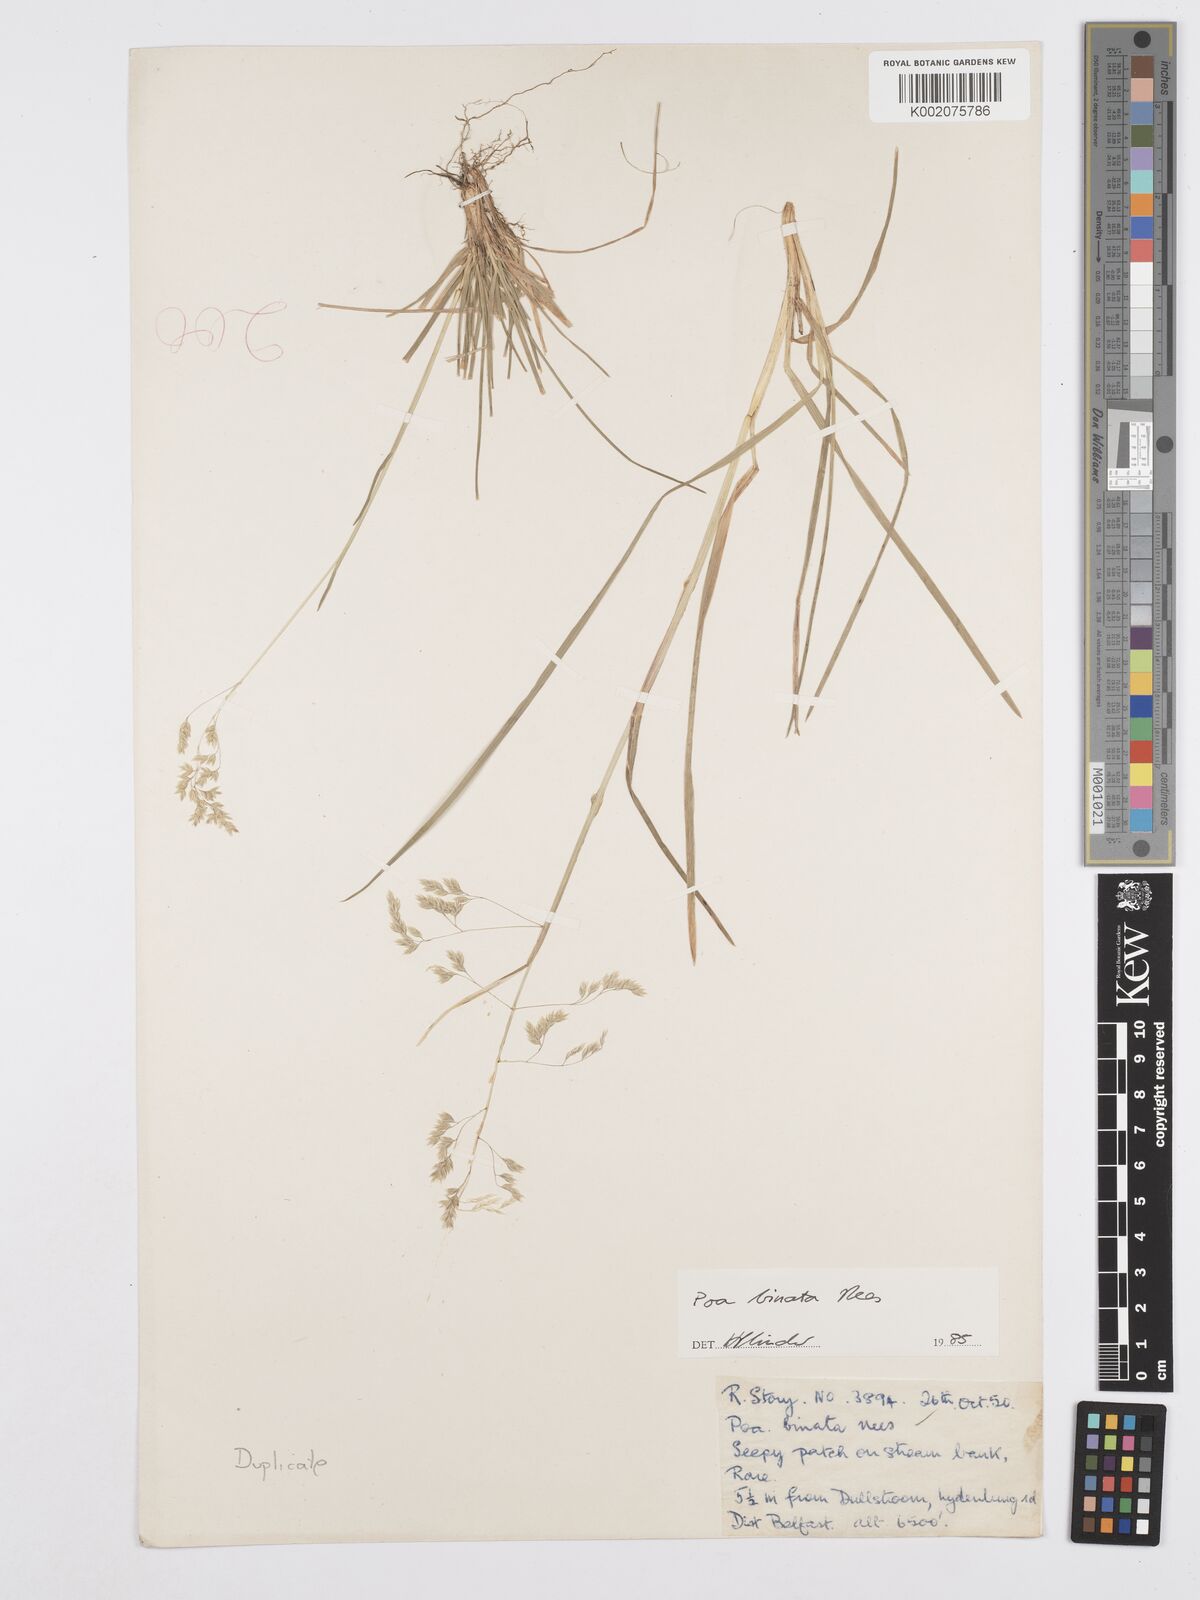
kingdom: Plantae
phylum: Tracheophyta
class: Liliopsida
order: Poales
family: Poaceae
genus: Poa
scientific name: Poa binata
